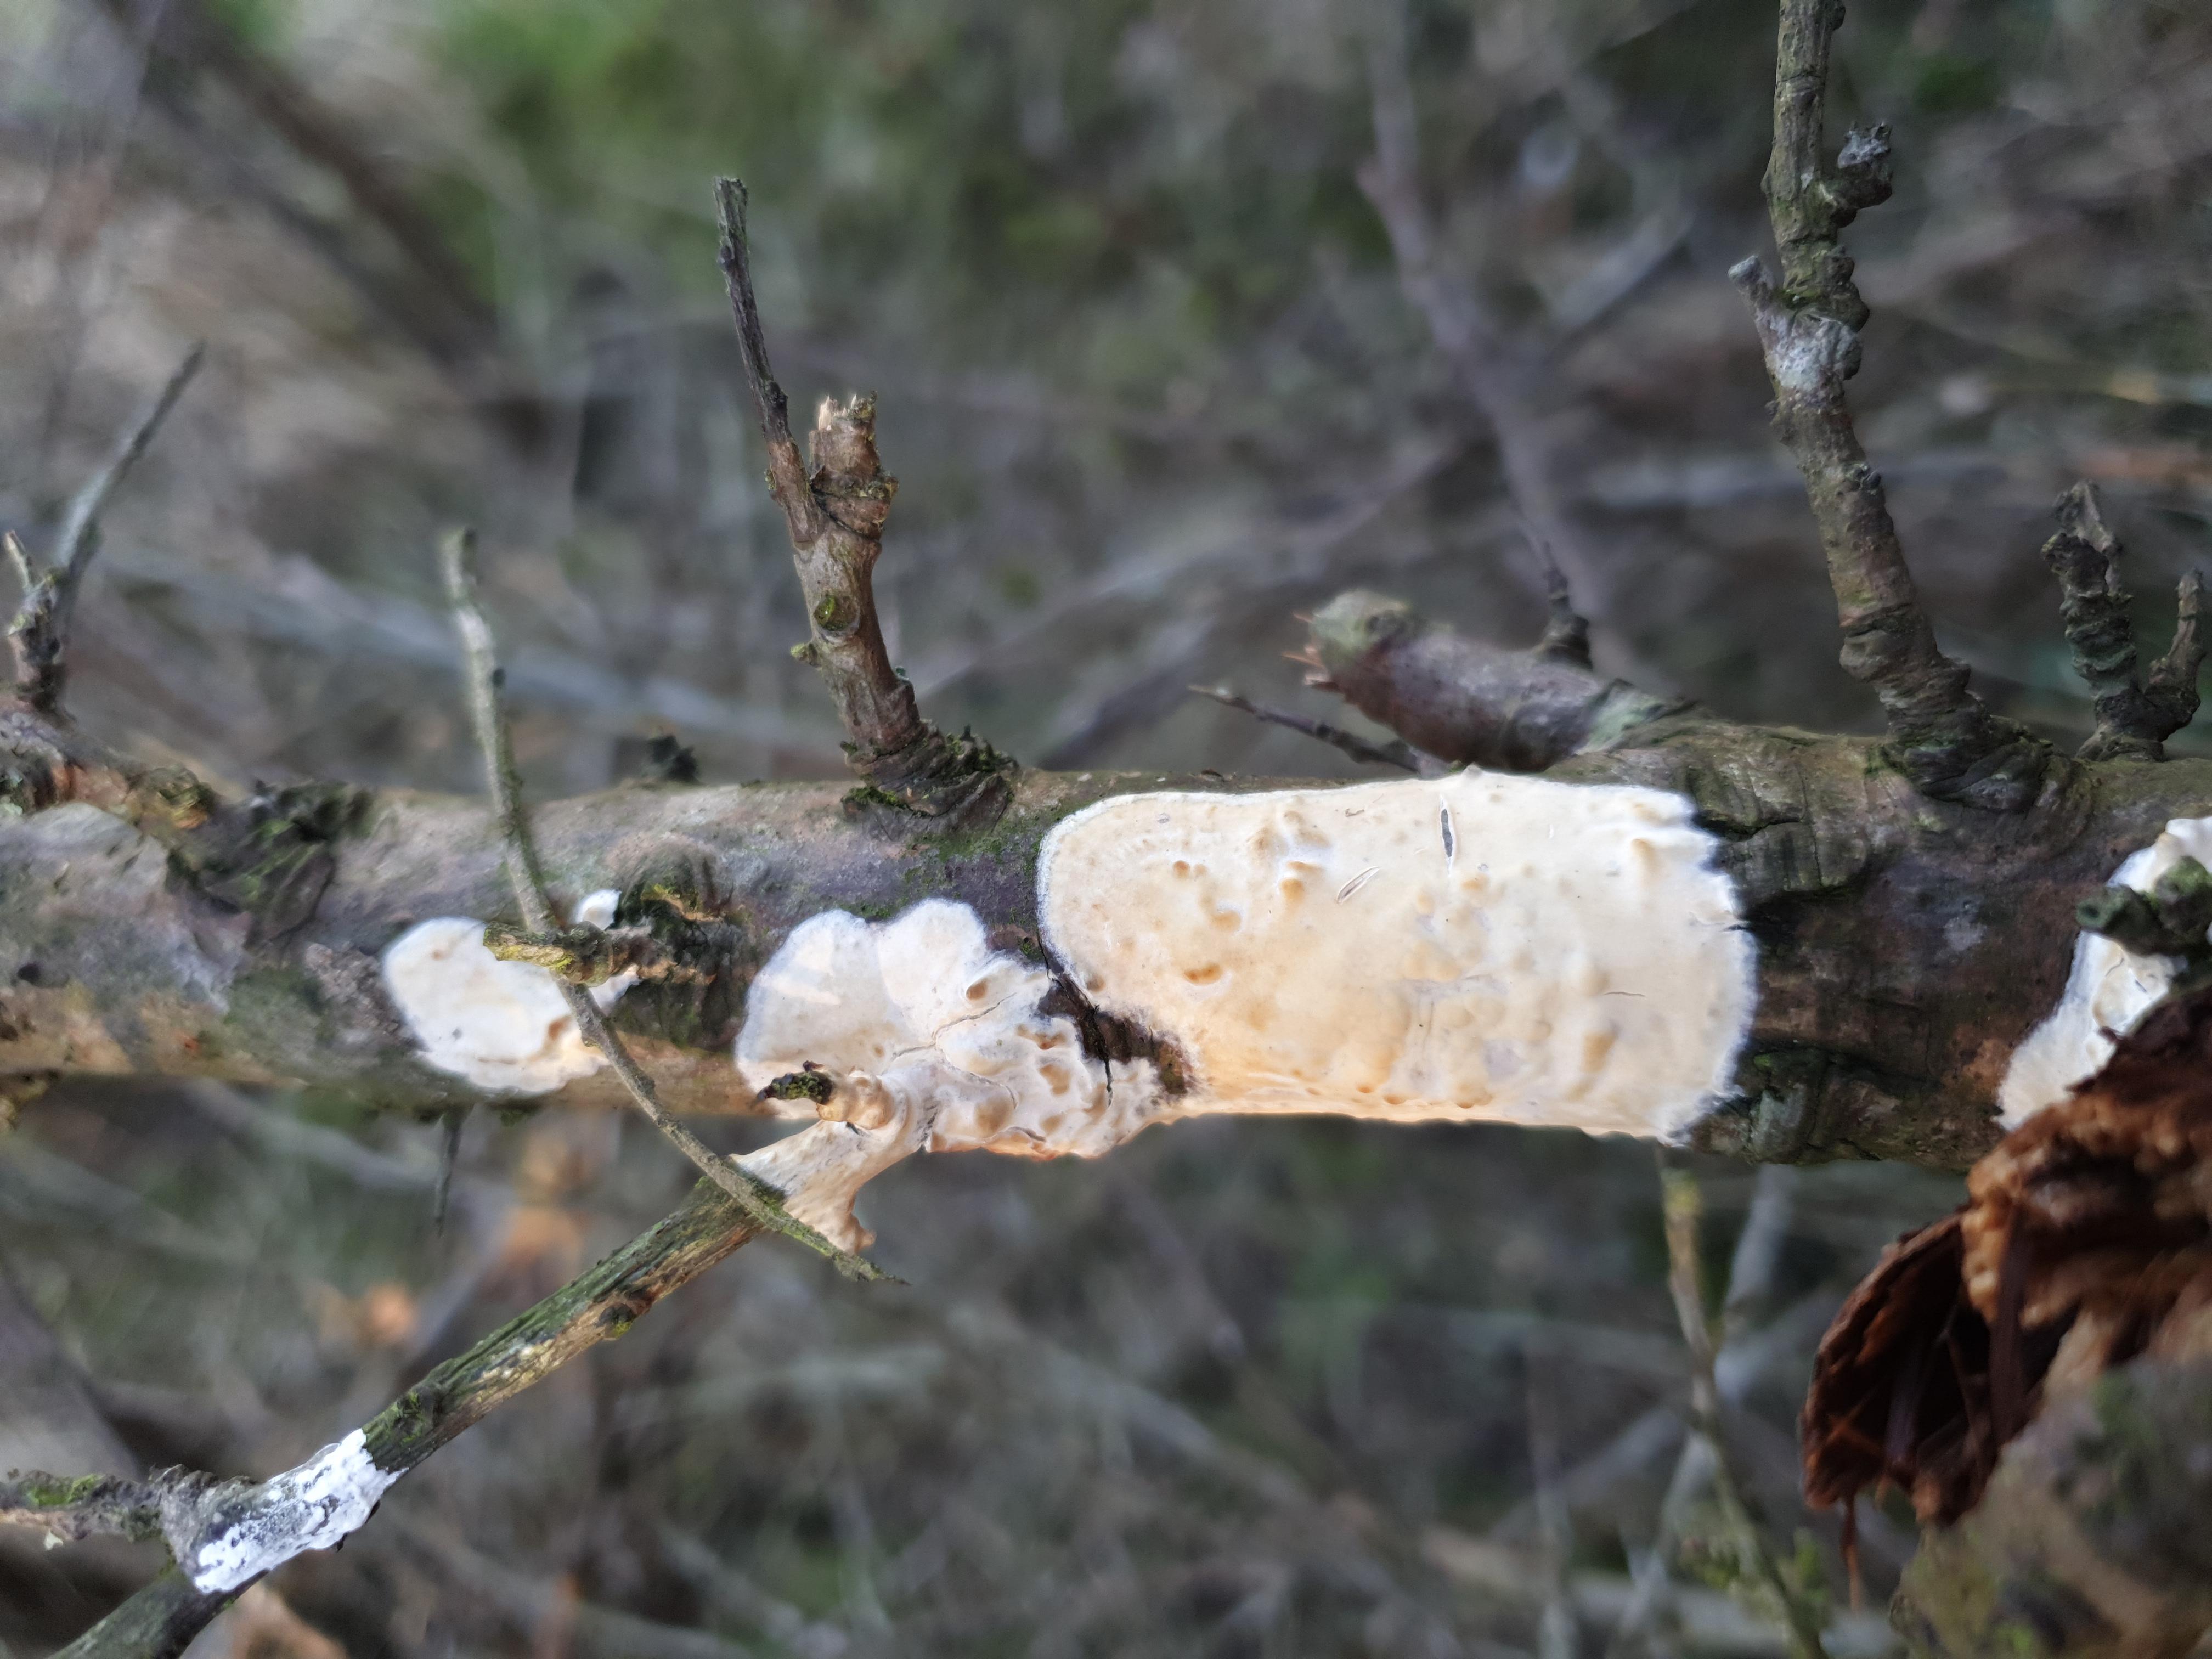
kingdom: Fungi
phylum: Basidiomycota
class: Agaricomycetes
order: Agaricales
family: Physalacriaceae
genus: Cylindrobasidium
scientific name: Cylindrobasidium evolvens
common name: sprækkehinde
